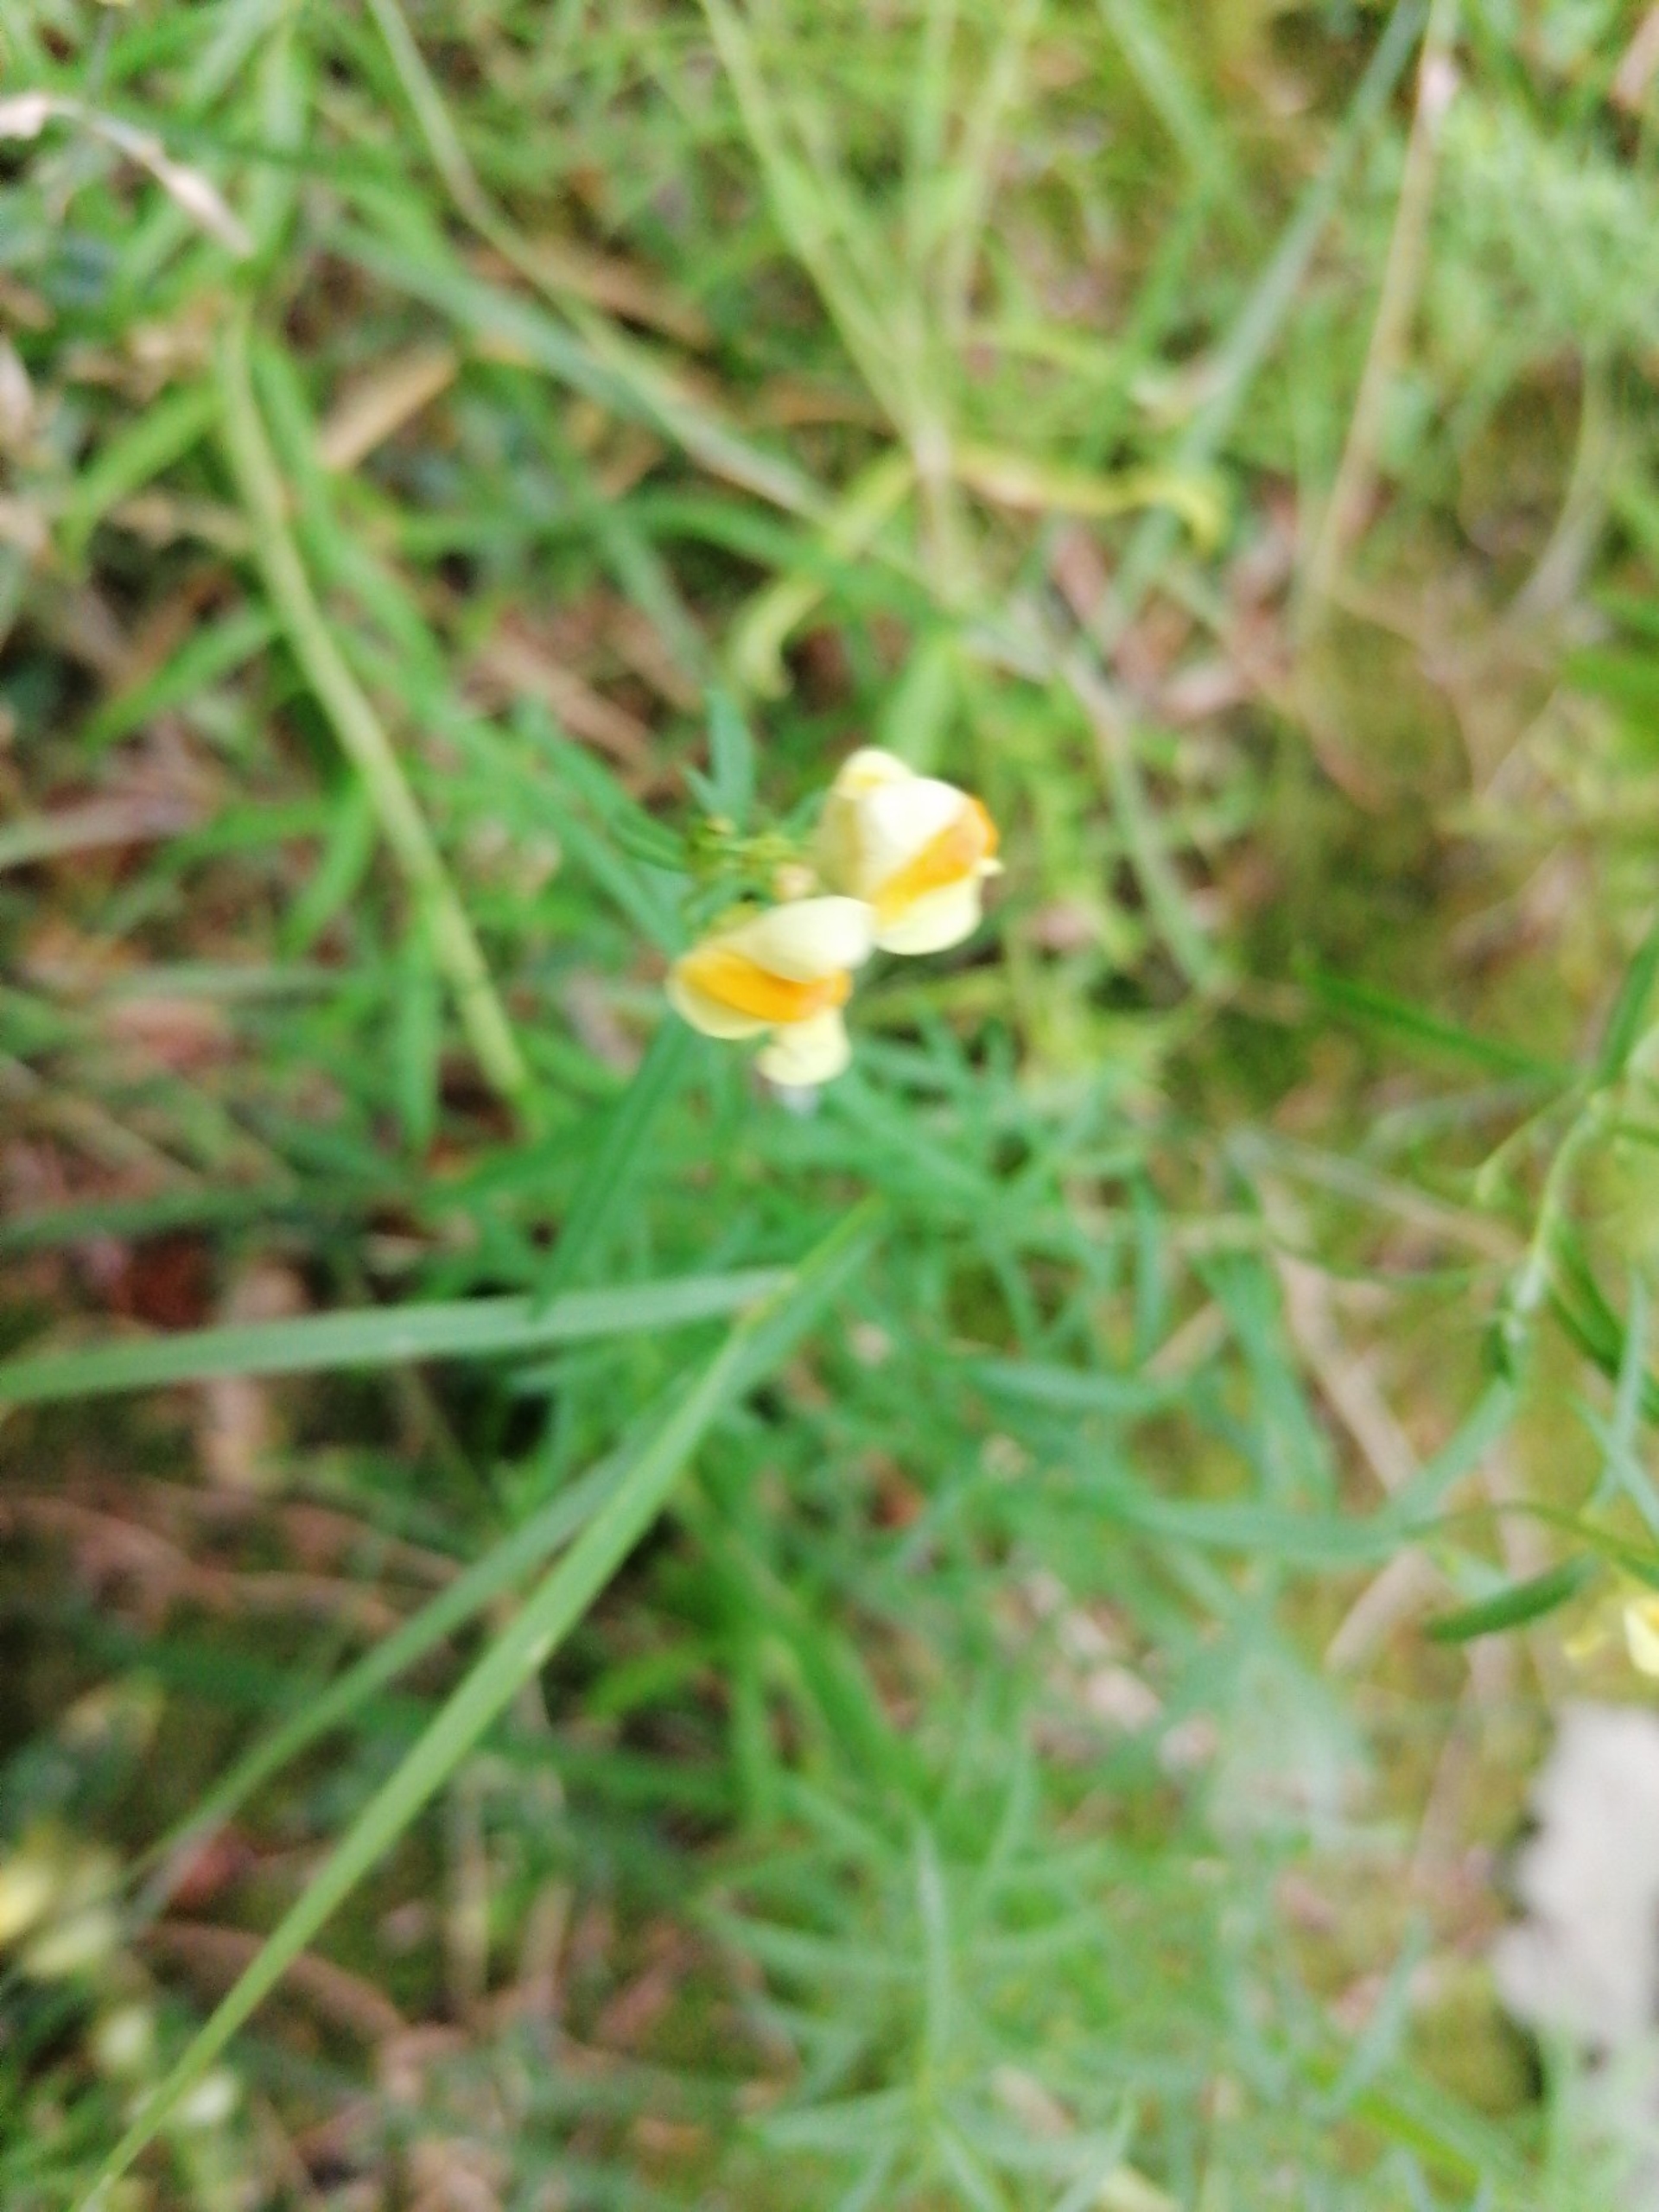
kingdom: Plantae
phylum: Tracheophyta
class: Magnoliopsida
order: Lamiales
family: Plantaginaceae
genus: Linaria
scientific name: Linaria vulgaris
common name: Almindelig torskemund
